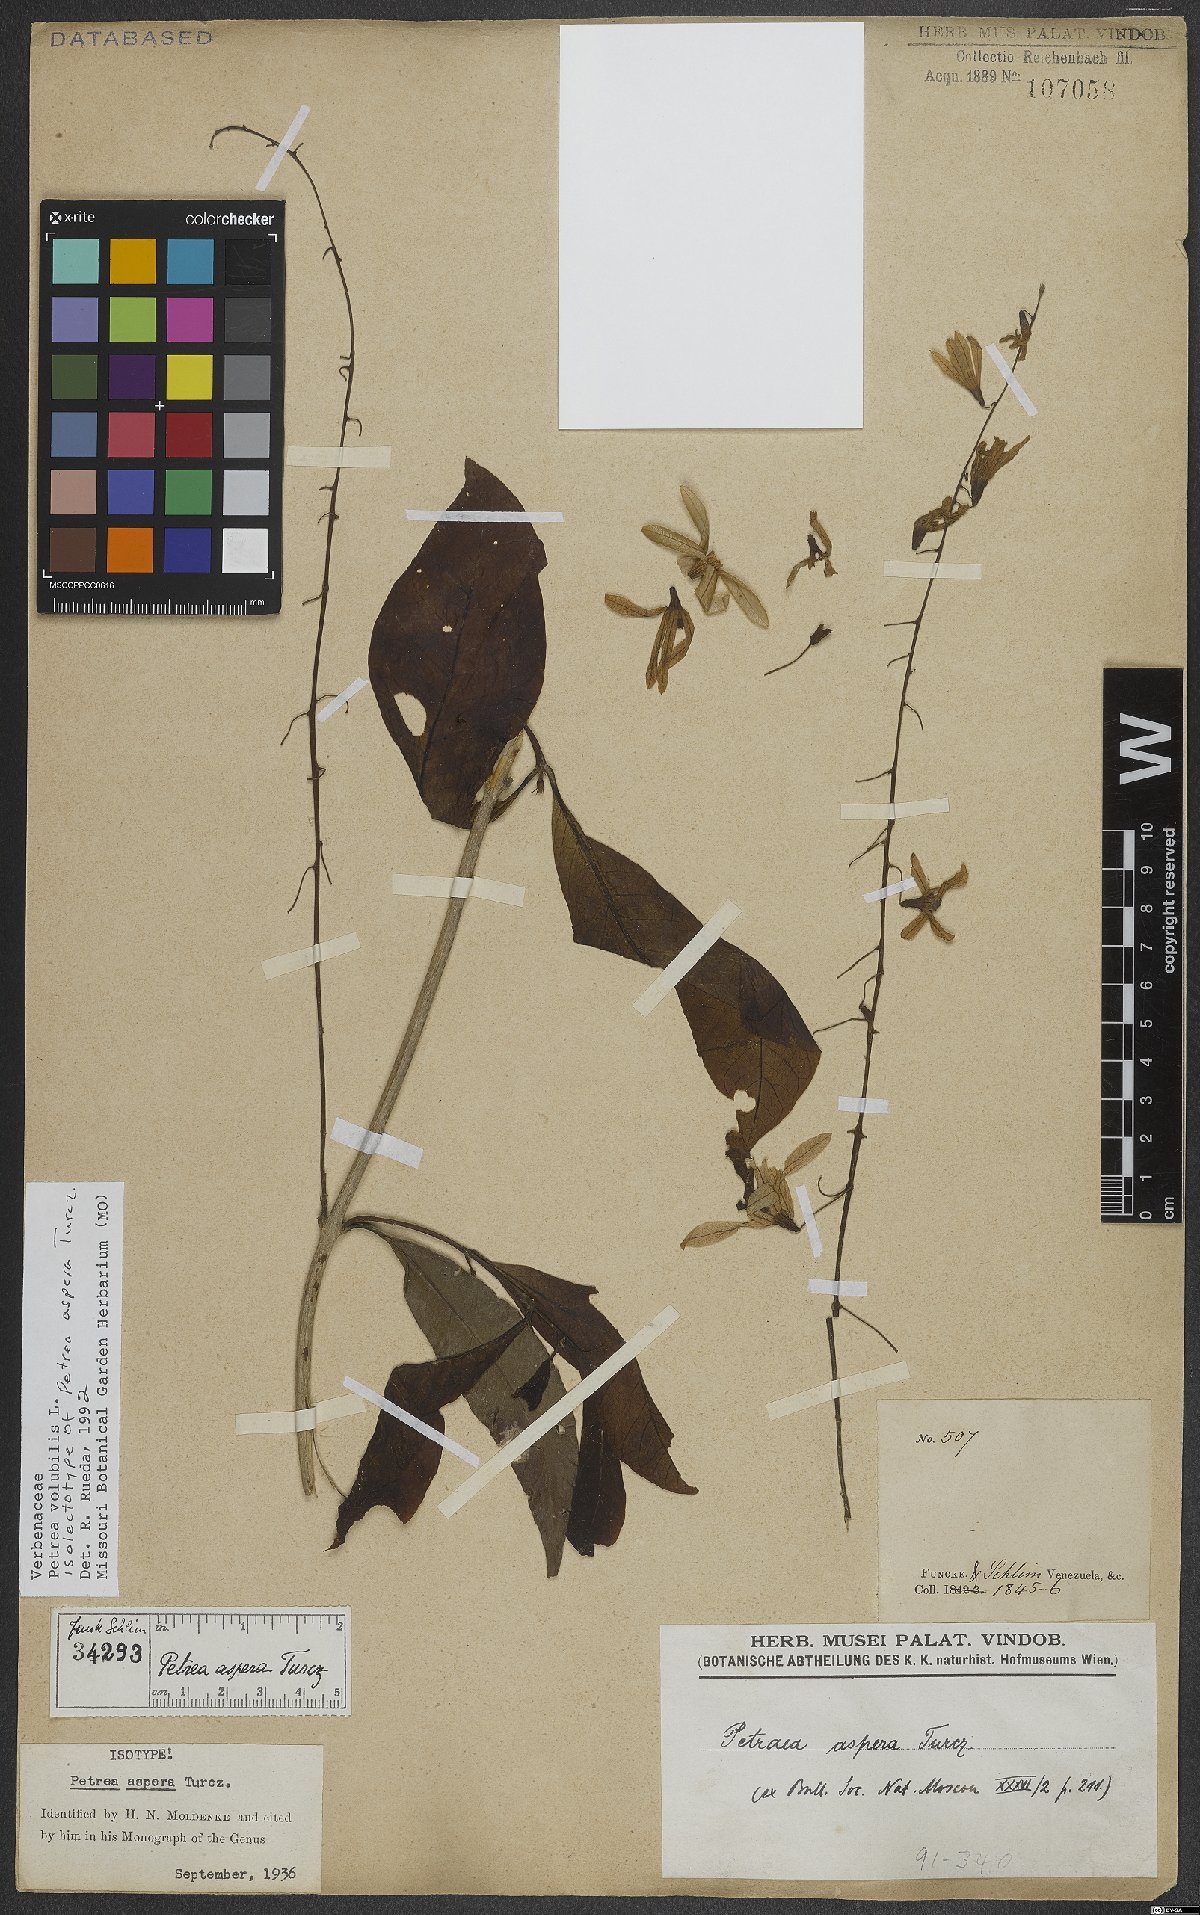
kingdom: Plantae
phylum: Tracheophyta
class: Magnoliopsida
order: Lamiales
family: Verbenaceae
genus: Petrea
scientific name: Petrea volubilis
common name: Queen's-wreath
